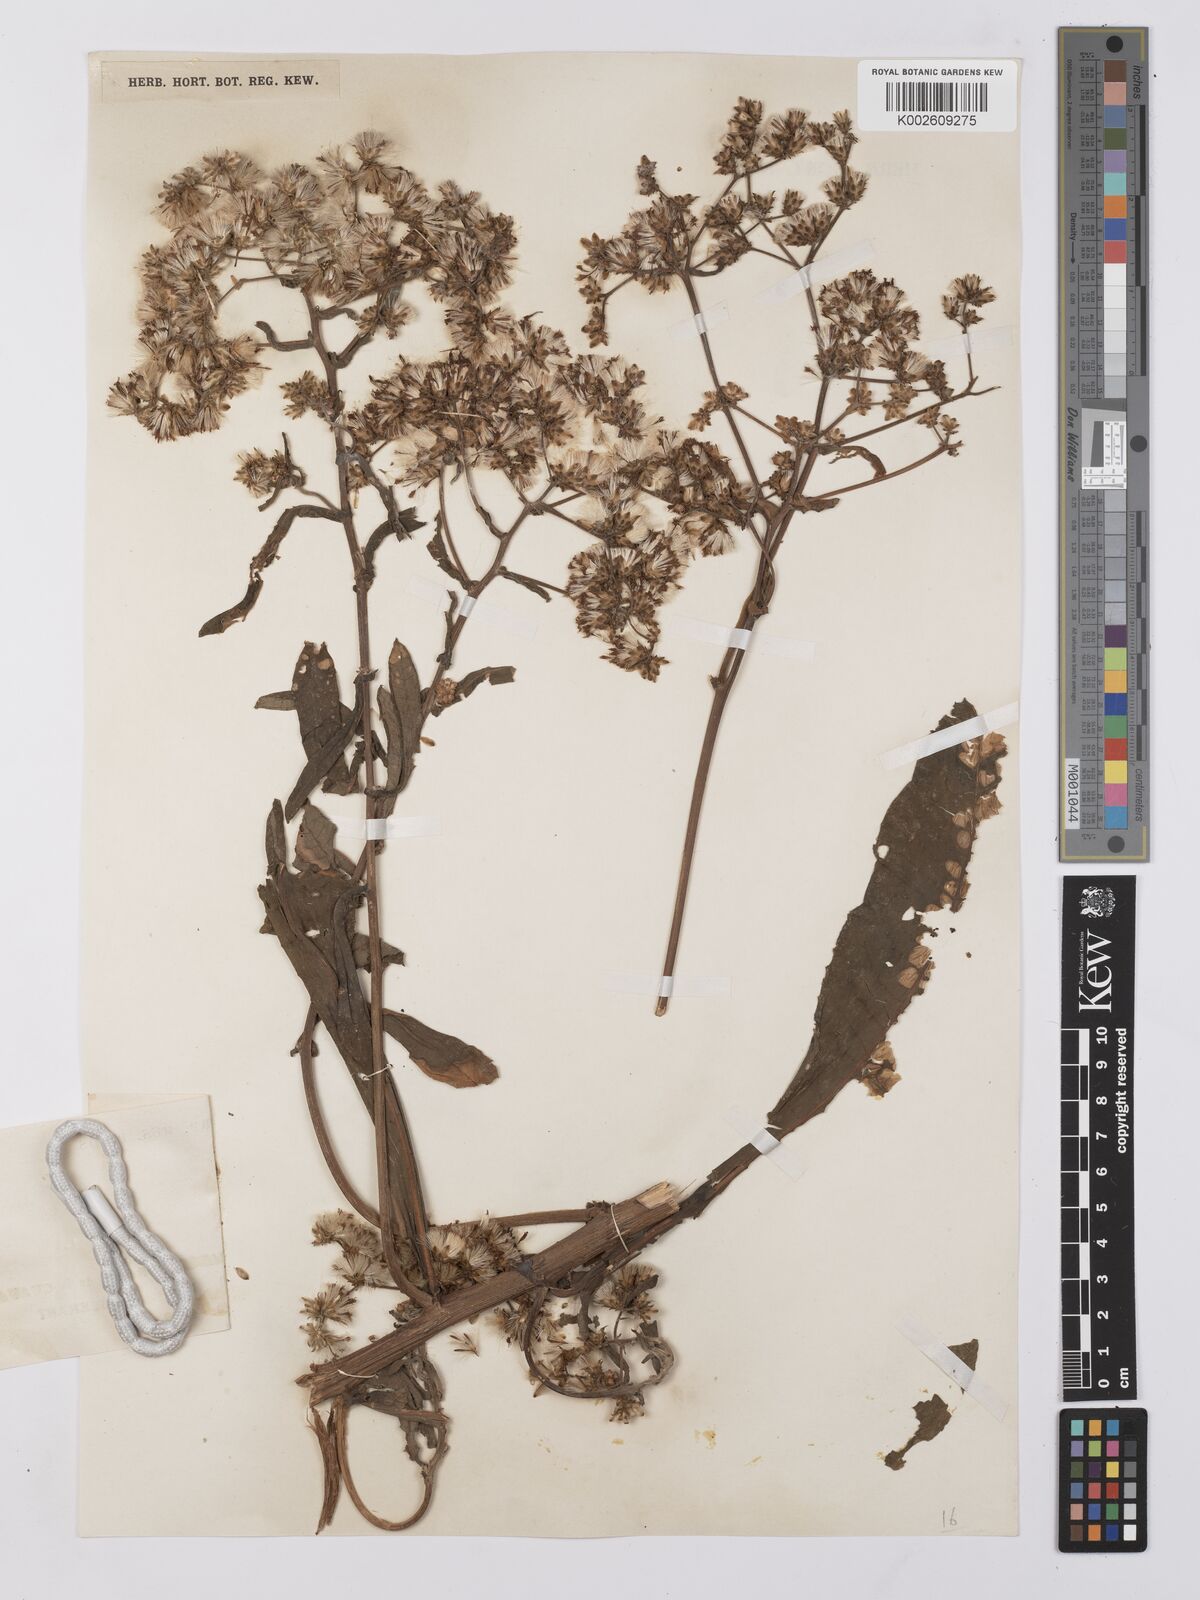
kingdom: Plantae
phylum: Tracheophyta
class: Magnoliopsida
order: Asterales
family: Asteraceae
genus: Gymnanthemum
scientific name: Gymnanthemum theophrastifolium
